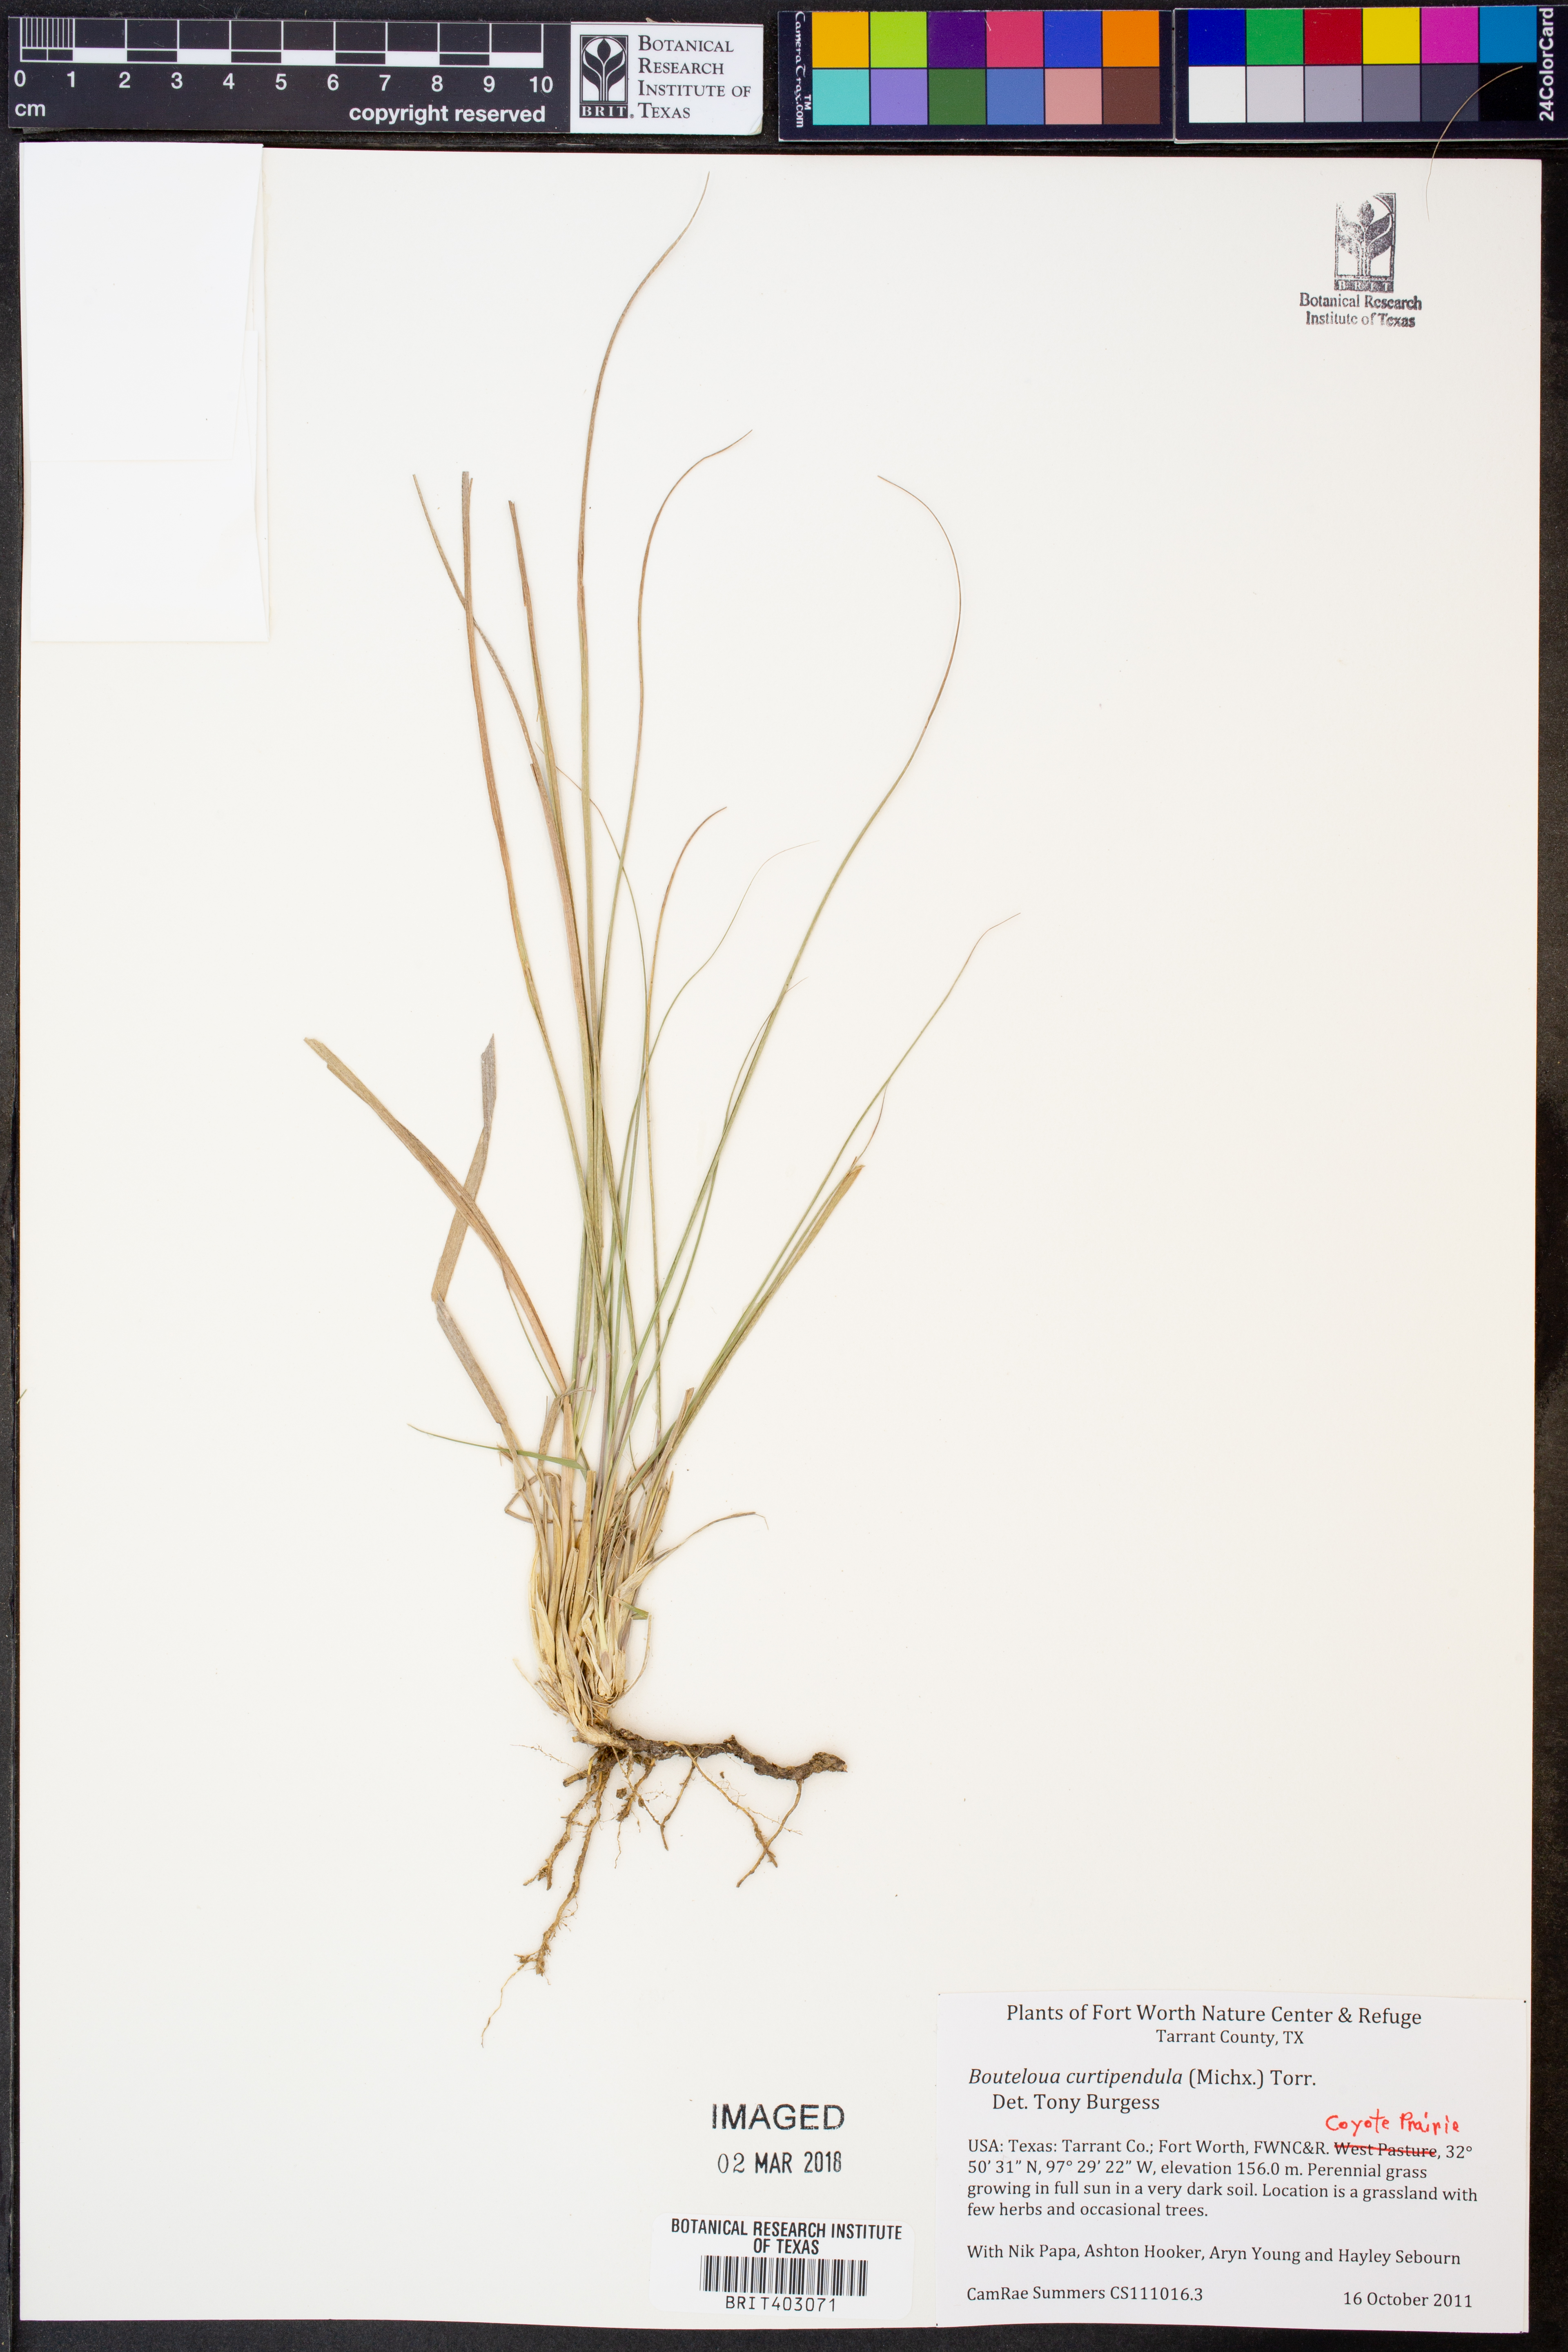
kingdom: Plantae
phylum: Tracheophyta
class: Liliopsida
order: Poales
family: Poaceae
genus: Bouteloua
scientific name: Bouteloua curtipendula
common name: Side-oats grama
